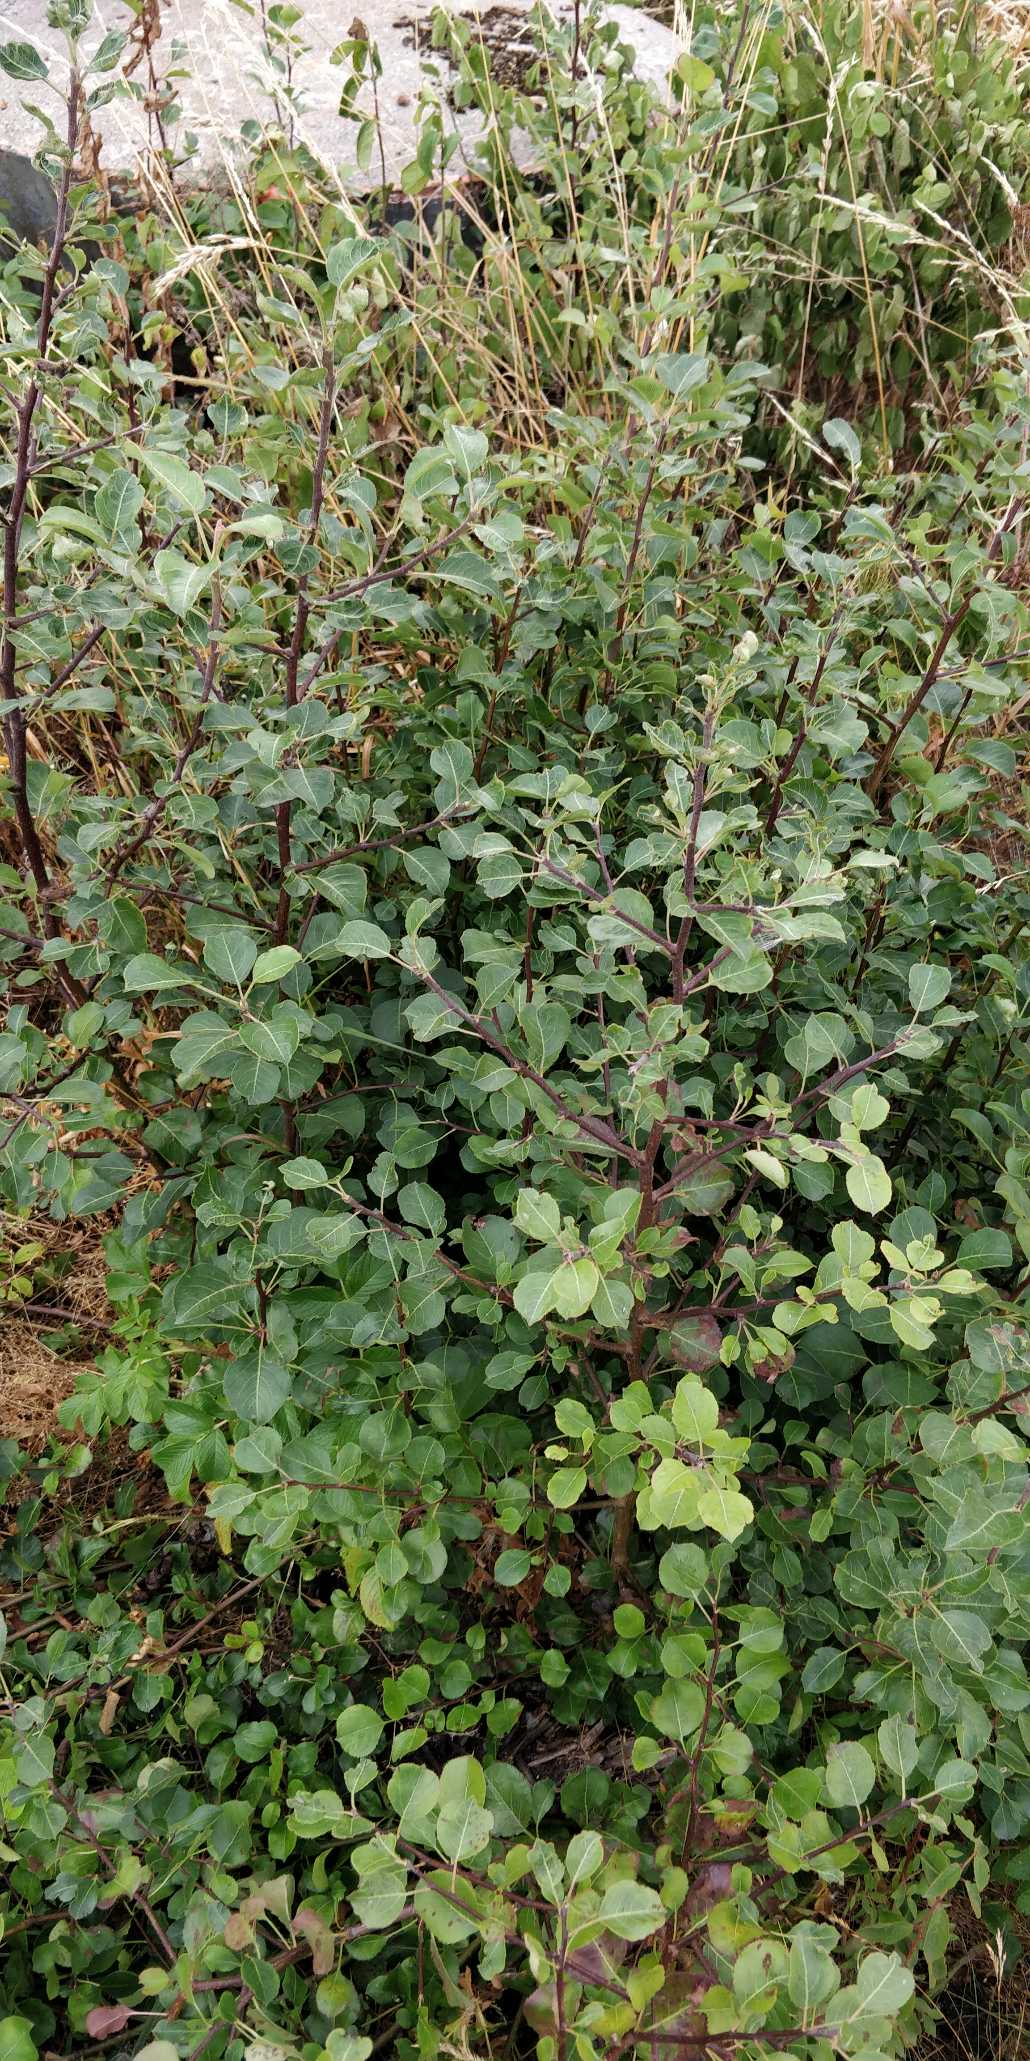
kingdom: Plantae
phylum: Tracheophyta
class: Magnoliopsida
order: Rosales
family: Rosaceae
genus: Prunus
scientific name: Prunus domestica
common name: Kræge
